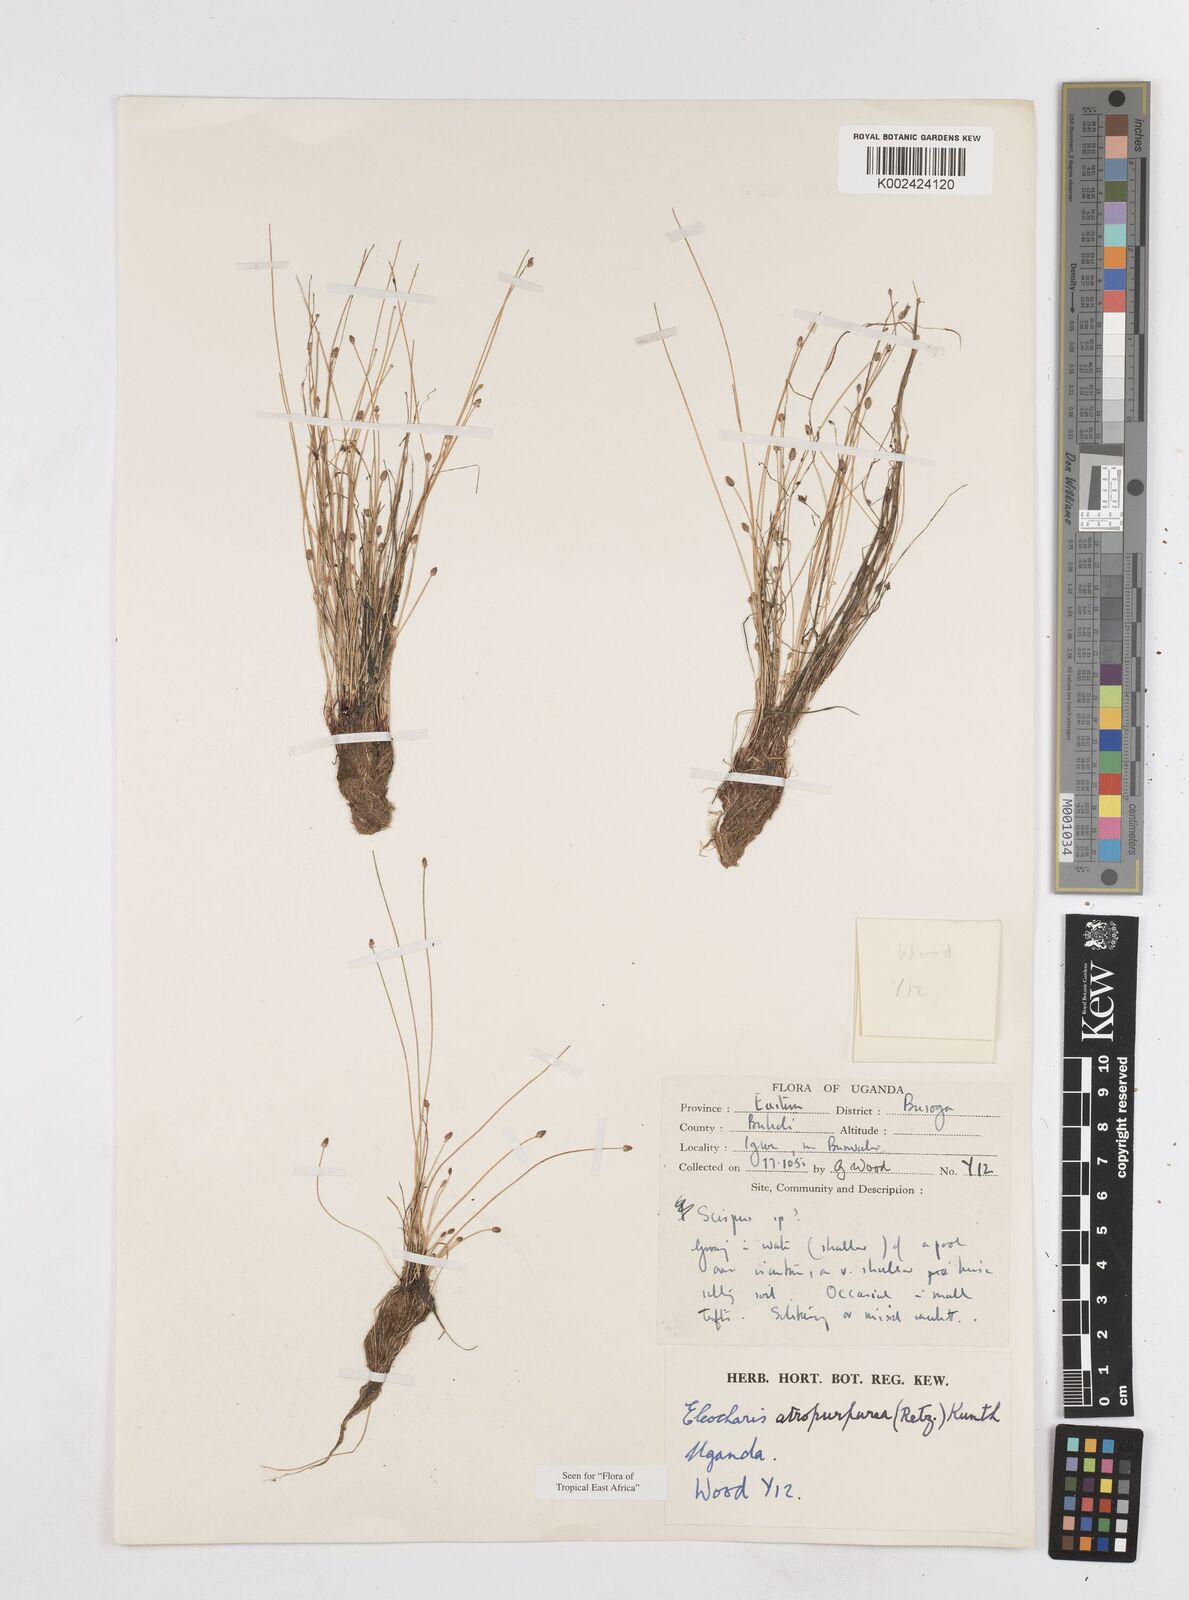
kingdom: Plantae
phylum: Tracheophyta
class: Liliopsida
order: Poales
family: Cyperaceae
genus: Eleocharis
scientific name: Eleocharis atropurpurea
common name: Purple spikerush
